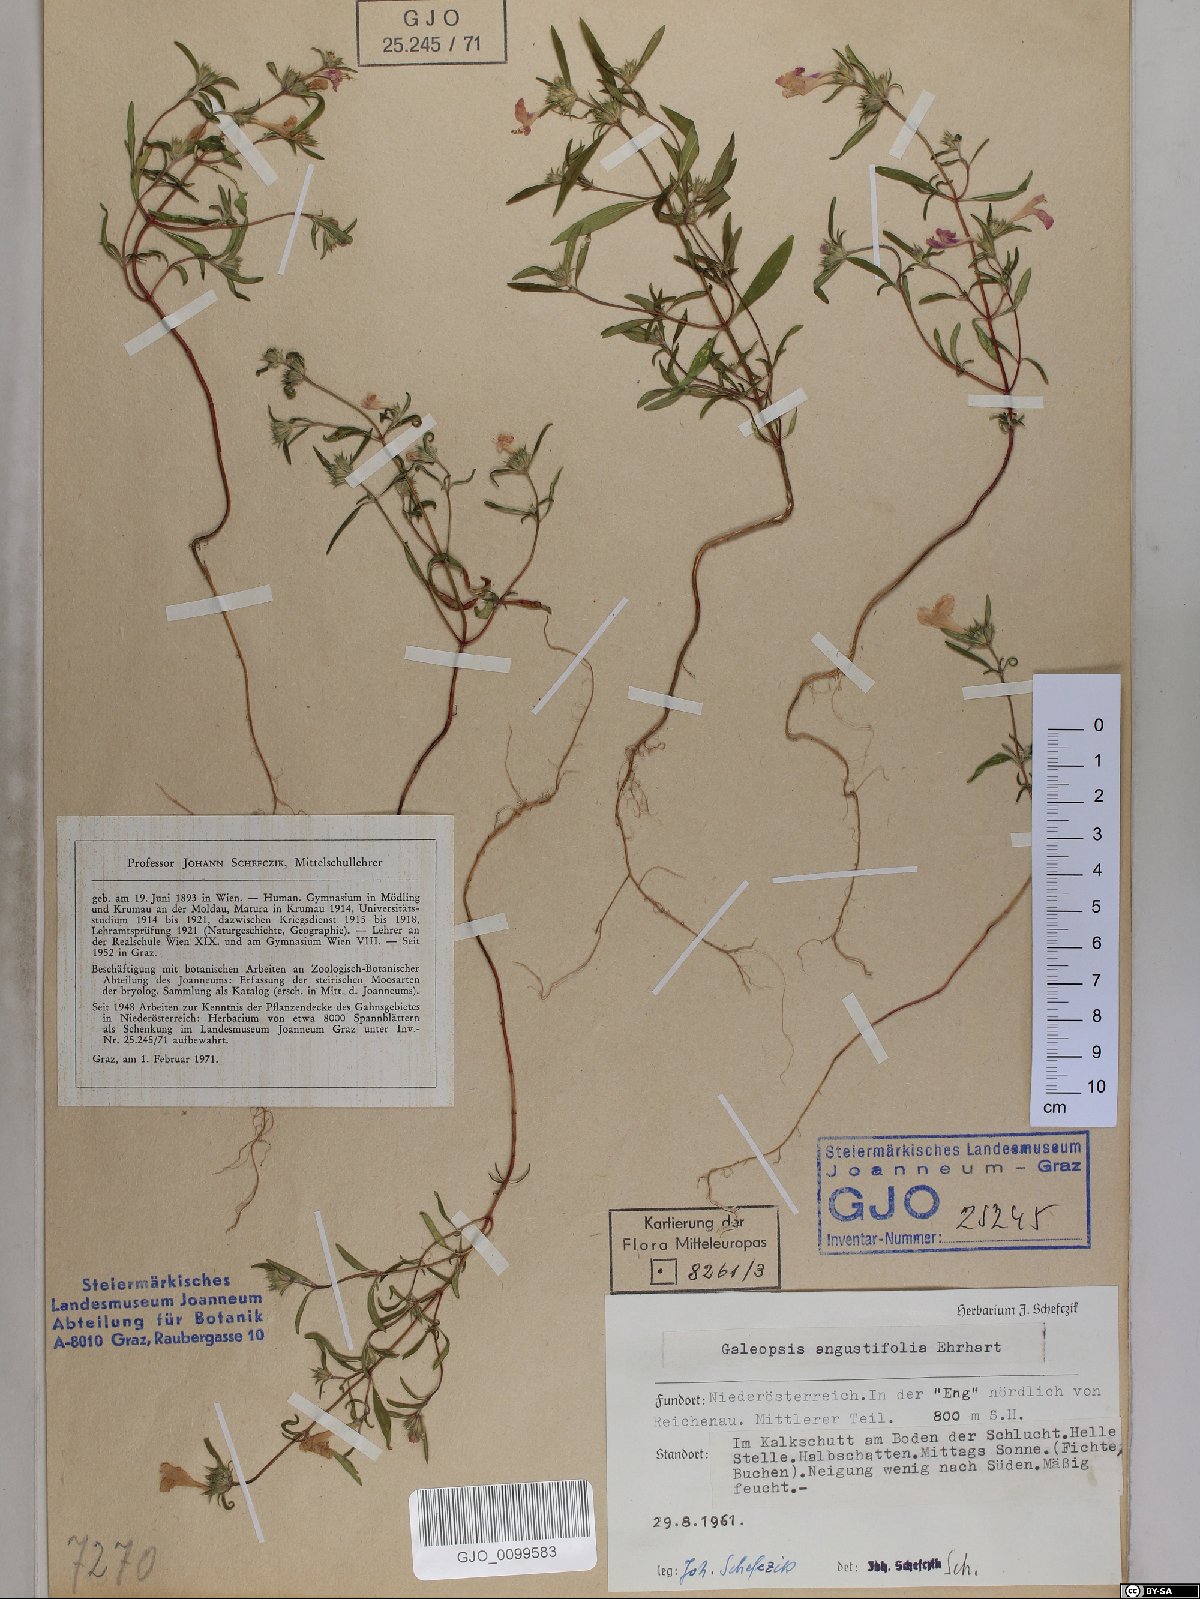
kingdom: Plantae
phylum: Tracheophyta
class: Magnoliopsida
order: Lamiales
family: Lamiaceae
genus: Galeopsis
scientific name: Galeopsis angustifolia
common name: Red hemp-nettle
